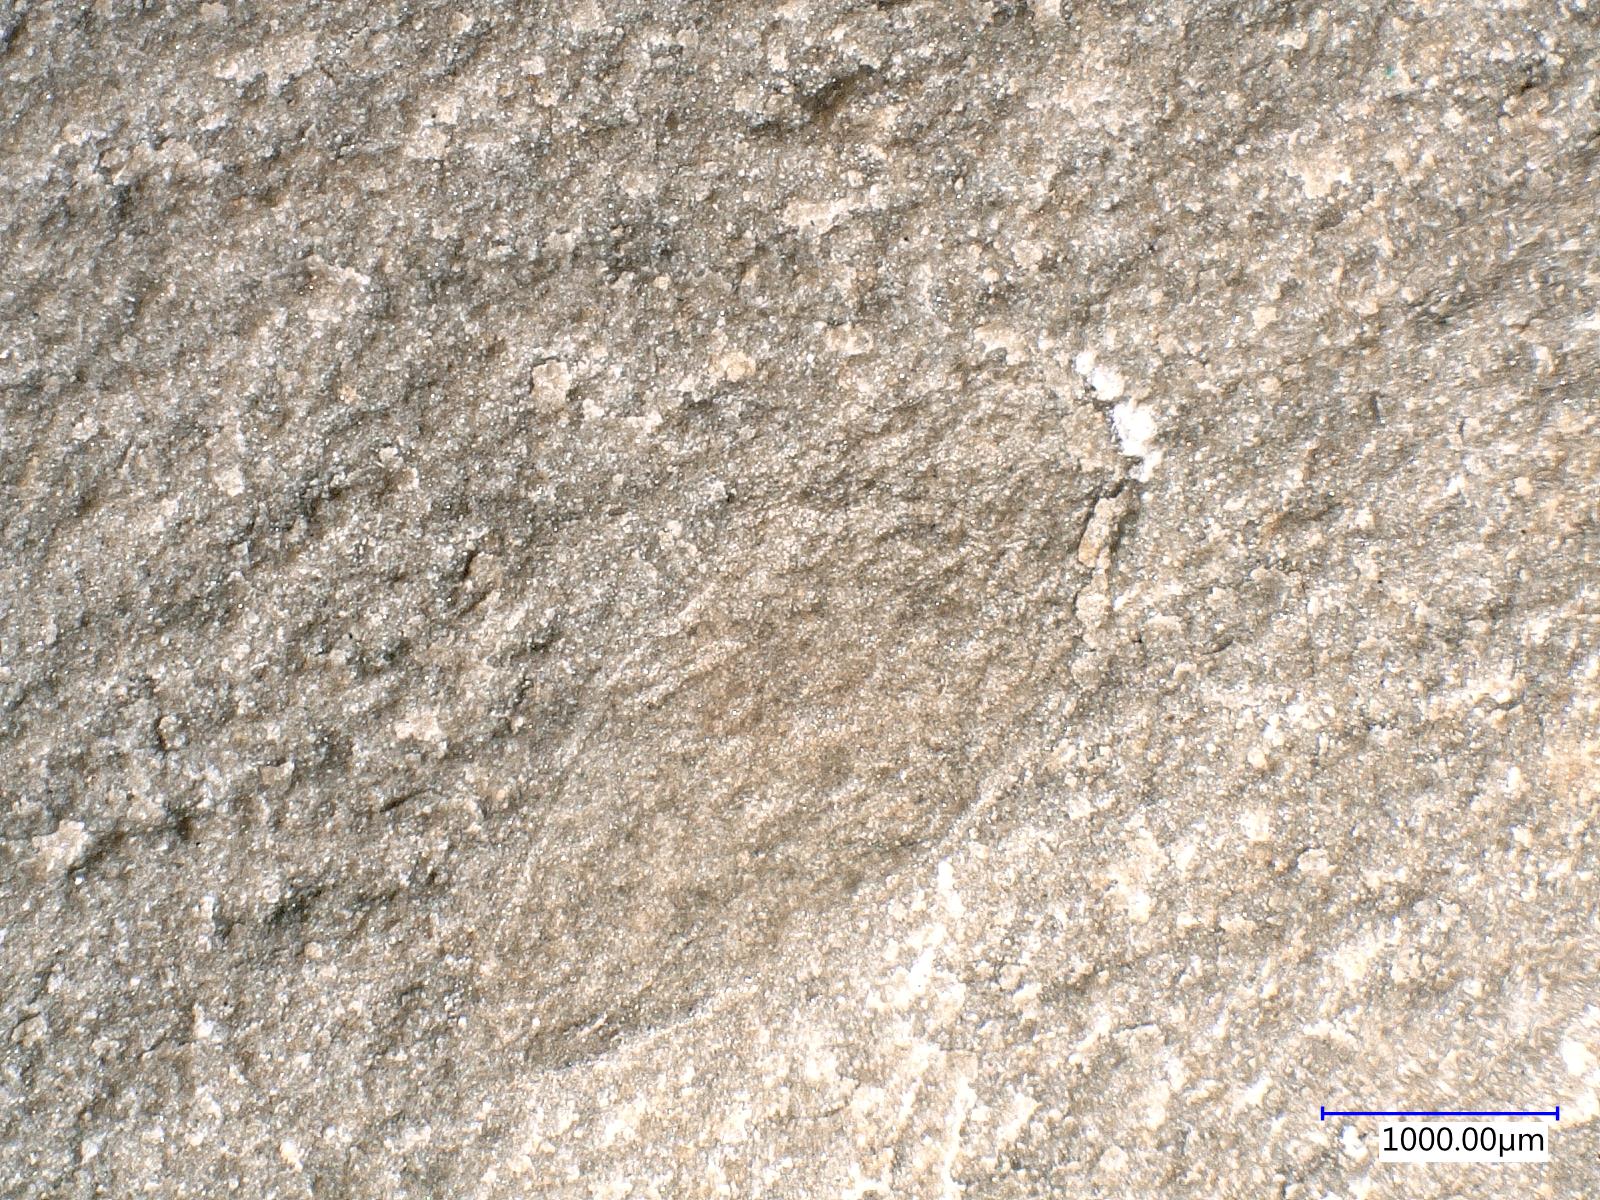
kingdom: Animalia
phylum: Arthropoda
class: Insecta
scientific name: Insecta
